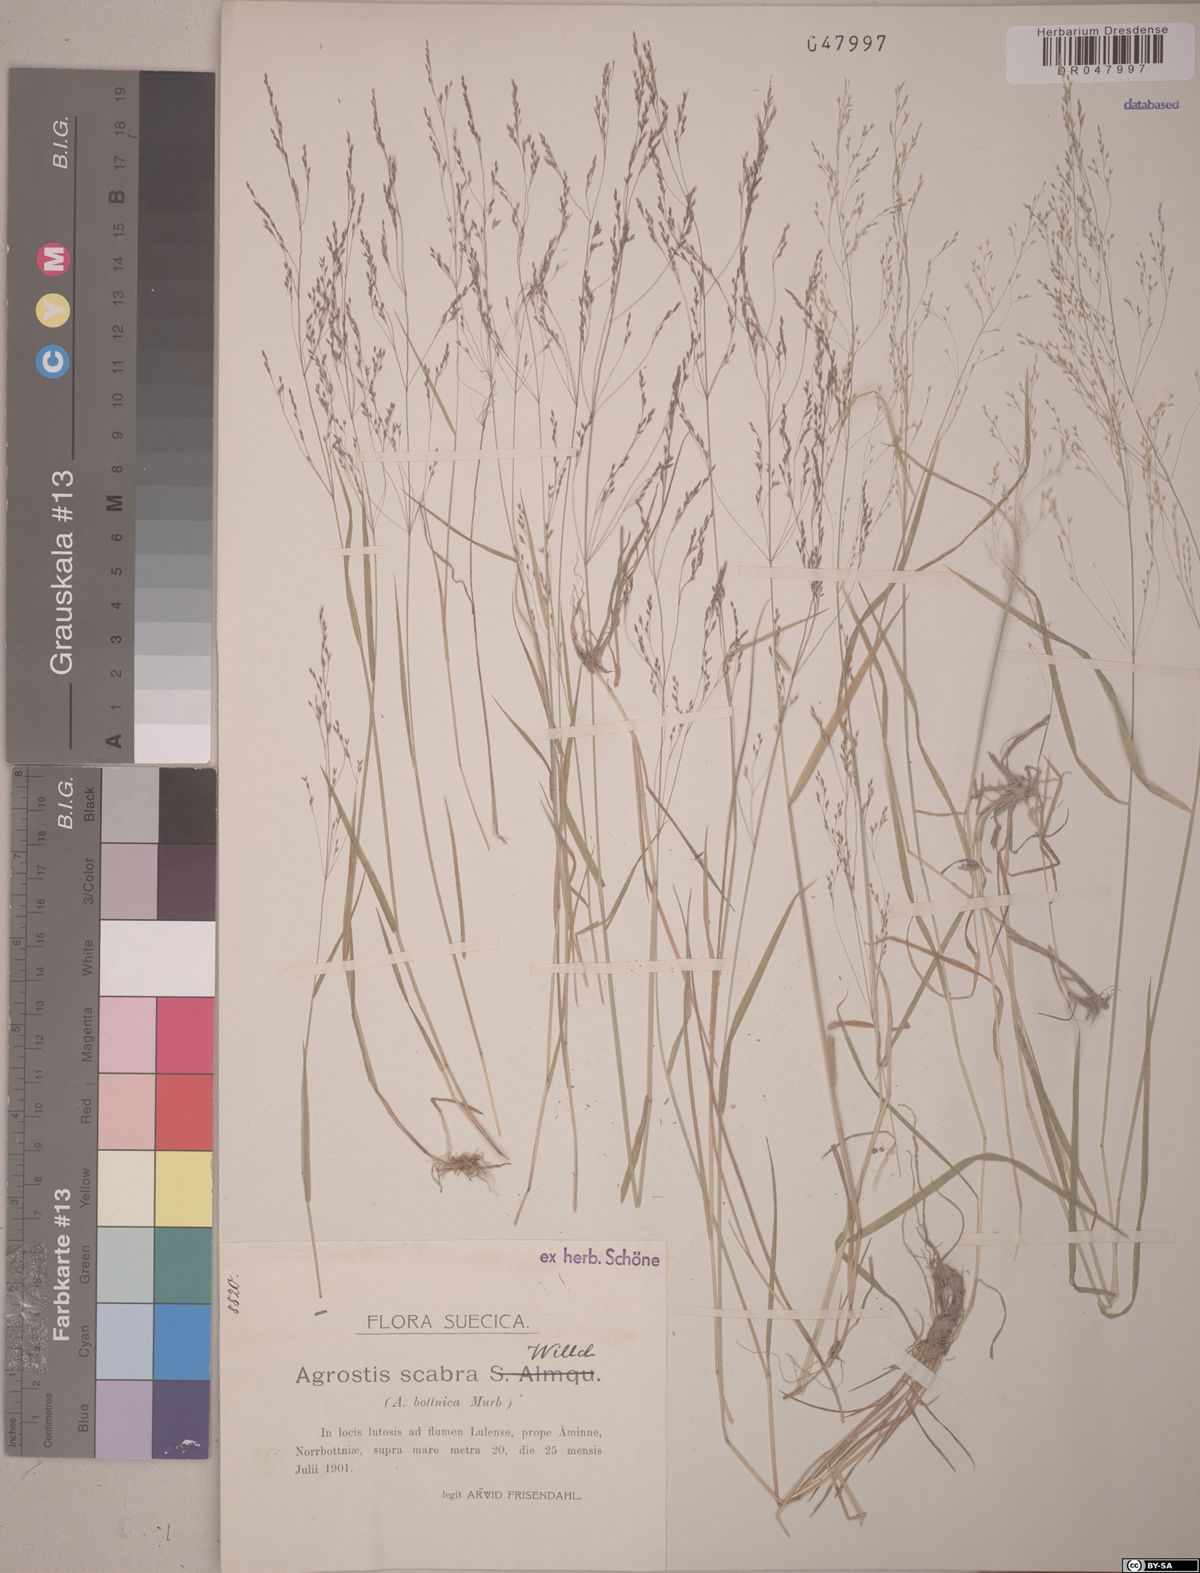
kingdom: Plantae
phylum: Tracheophyta
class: Liliopsida
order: Poales
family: Poaceae
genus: Agrostis
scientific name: Agrostis scabra
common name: Rough bent
